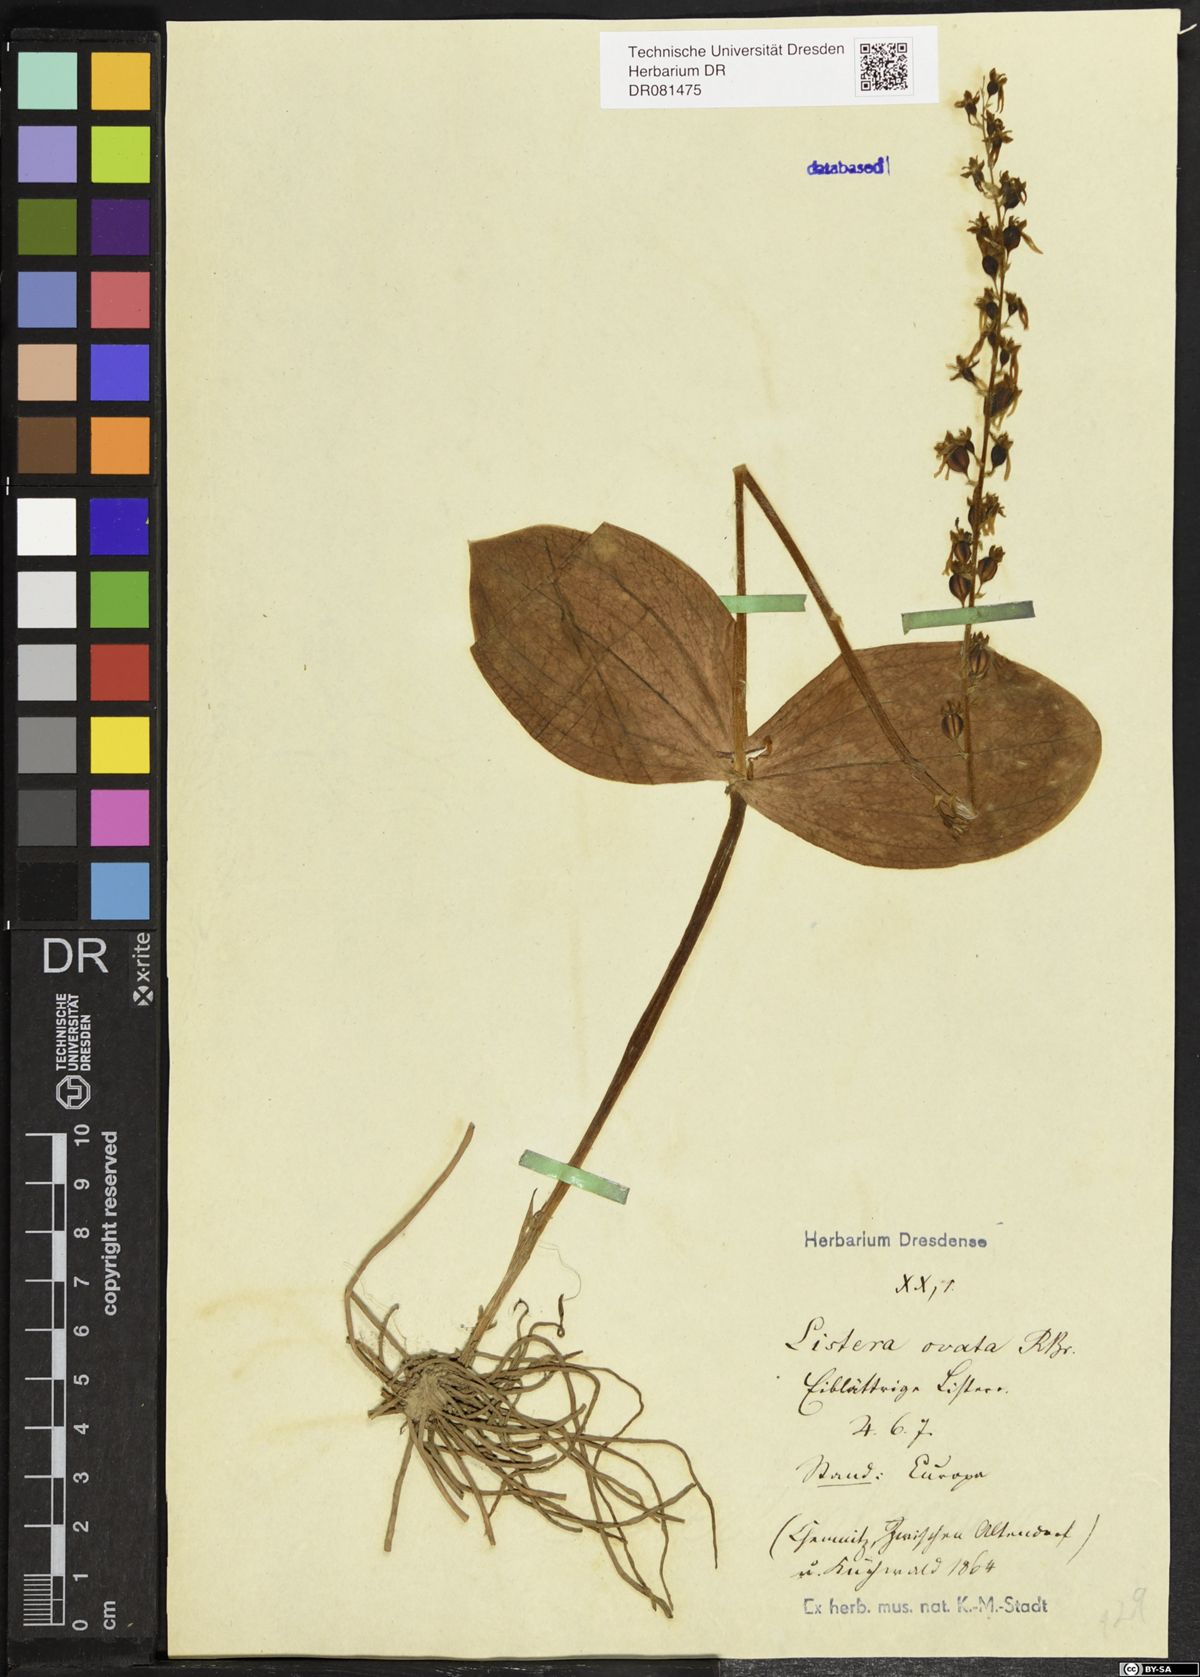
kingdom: Plantae
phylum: Tracheophyta
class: Liliopsida
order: Asparagales
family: Orchidaceae
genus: Neottia
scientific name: Neottia ovata
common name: Common twayblade
